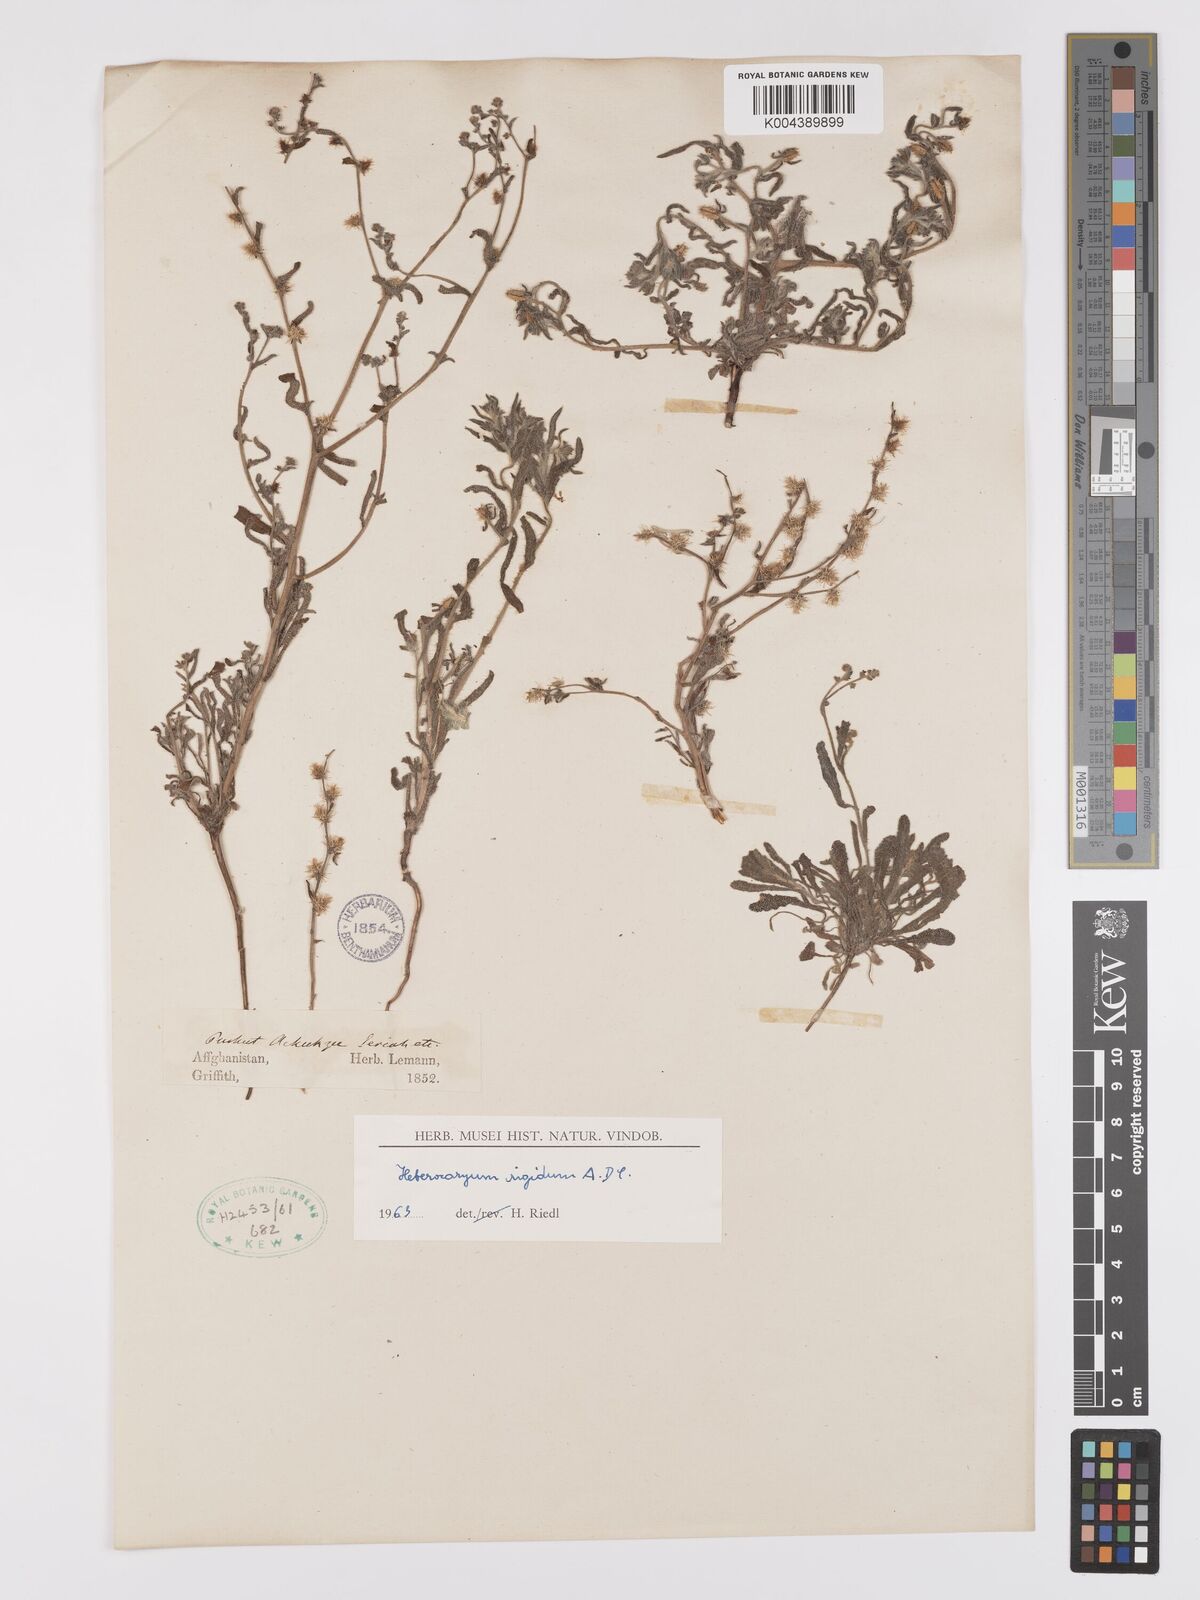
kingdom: Plantae
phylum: Tracheophyta
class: Magnoliopsida
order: Boraginales
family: Boraginaceae
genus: Lappula
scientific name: Lappula microcarpa
